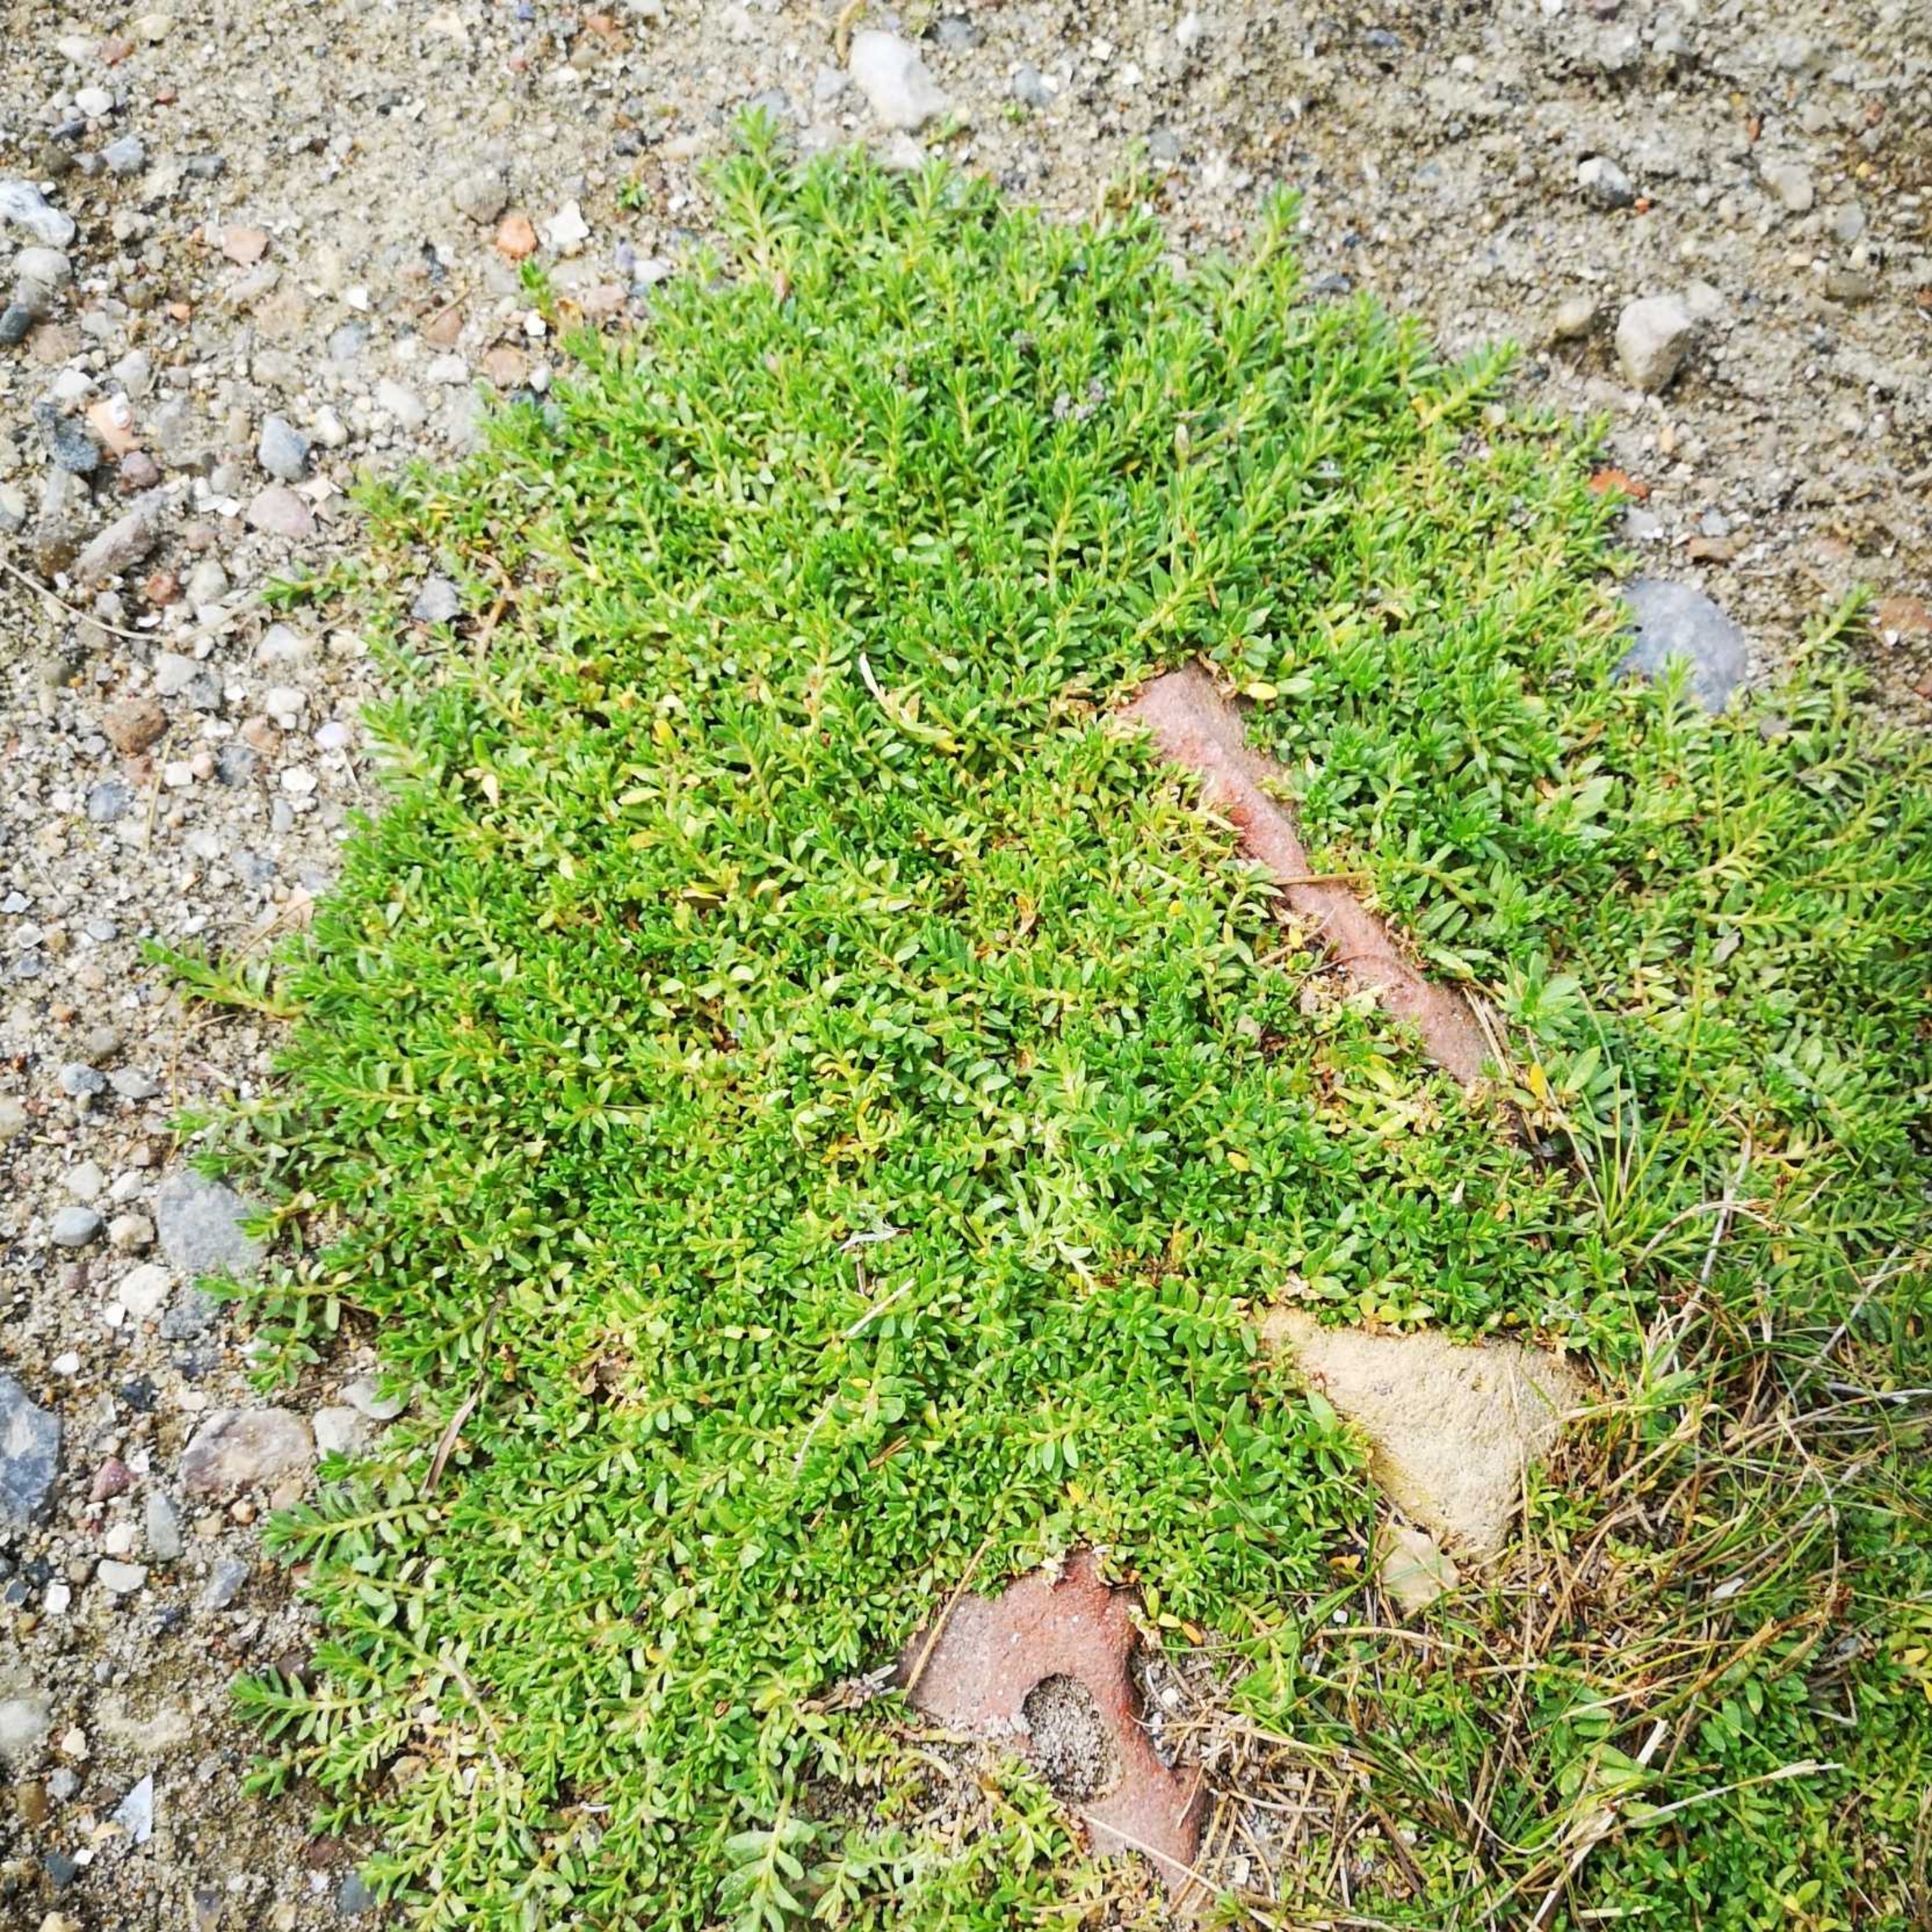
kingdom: Plantae
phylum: Tracheophyta
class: Magnoliopsida
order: Ericales
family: Primulaceae
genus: Lysimachia
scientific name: Lysimachia maritima
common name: Sandkryb
